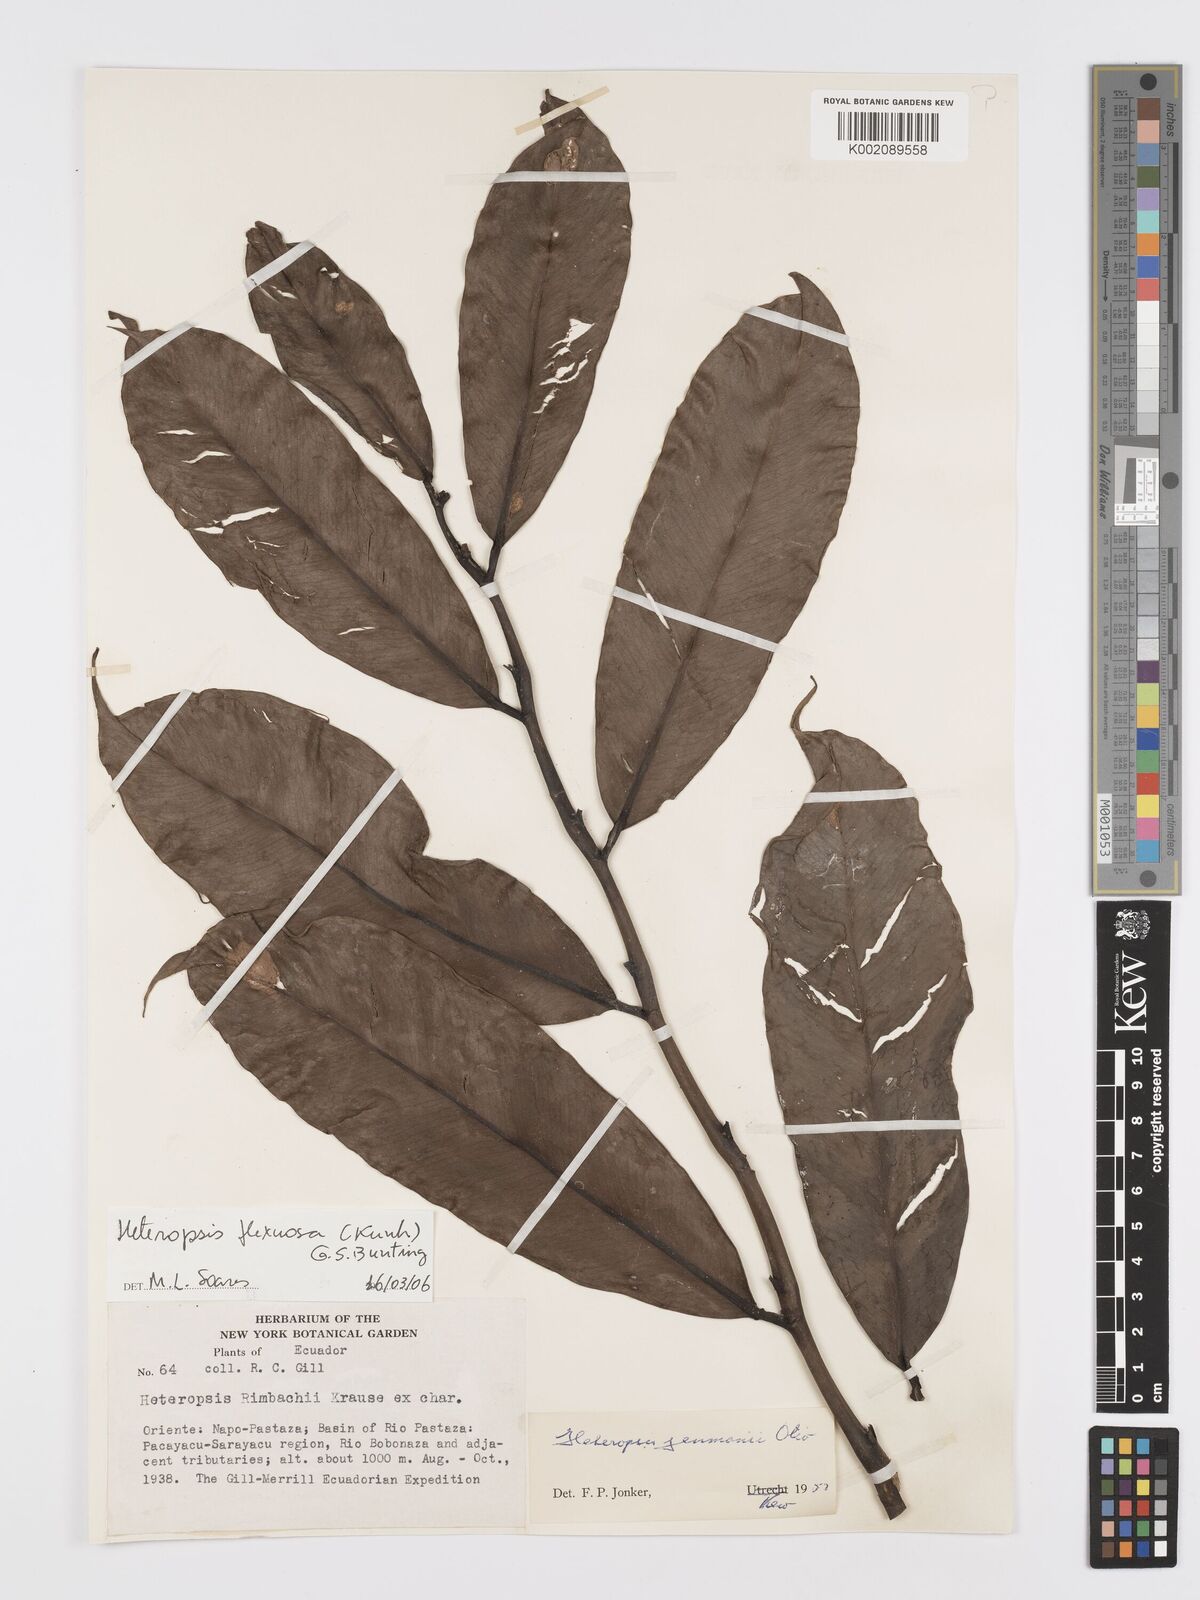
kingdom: Plantae
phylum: Tracheophyta
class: Liliopsida
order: Alismatales
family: Araceae
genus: Heteropsis
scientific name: Heteropsis flexuosa
